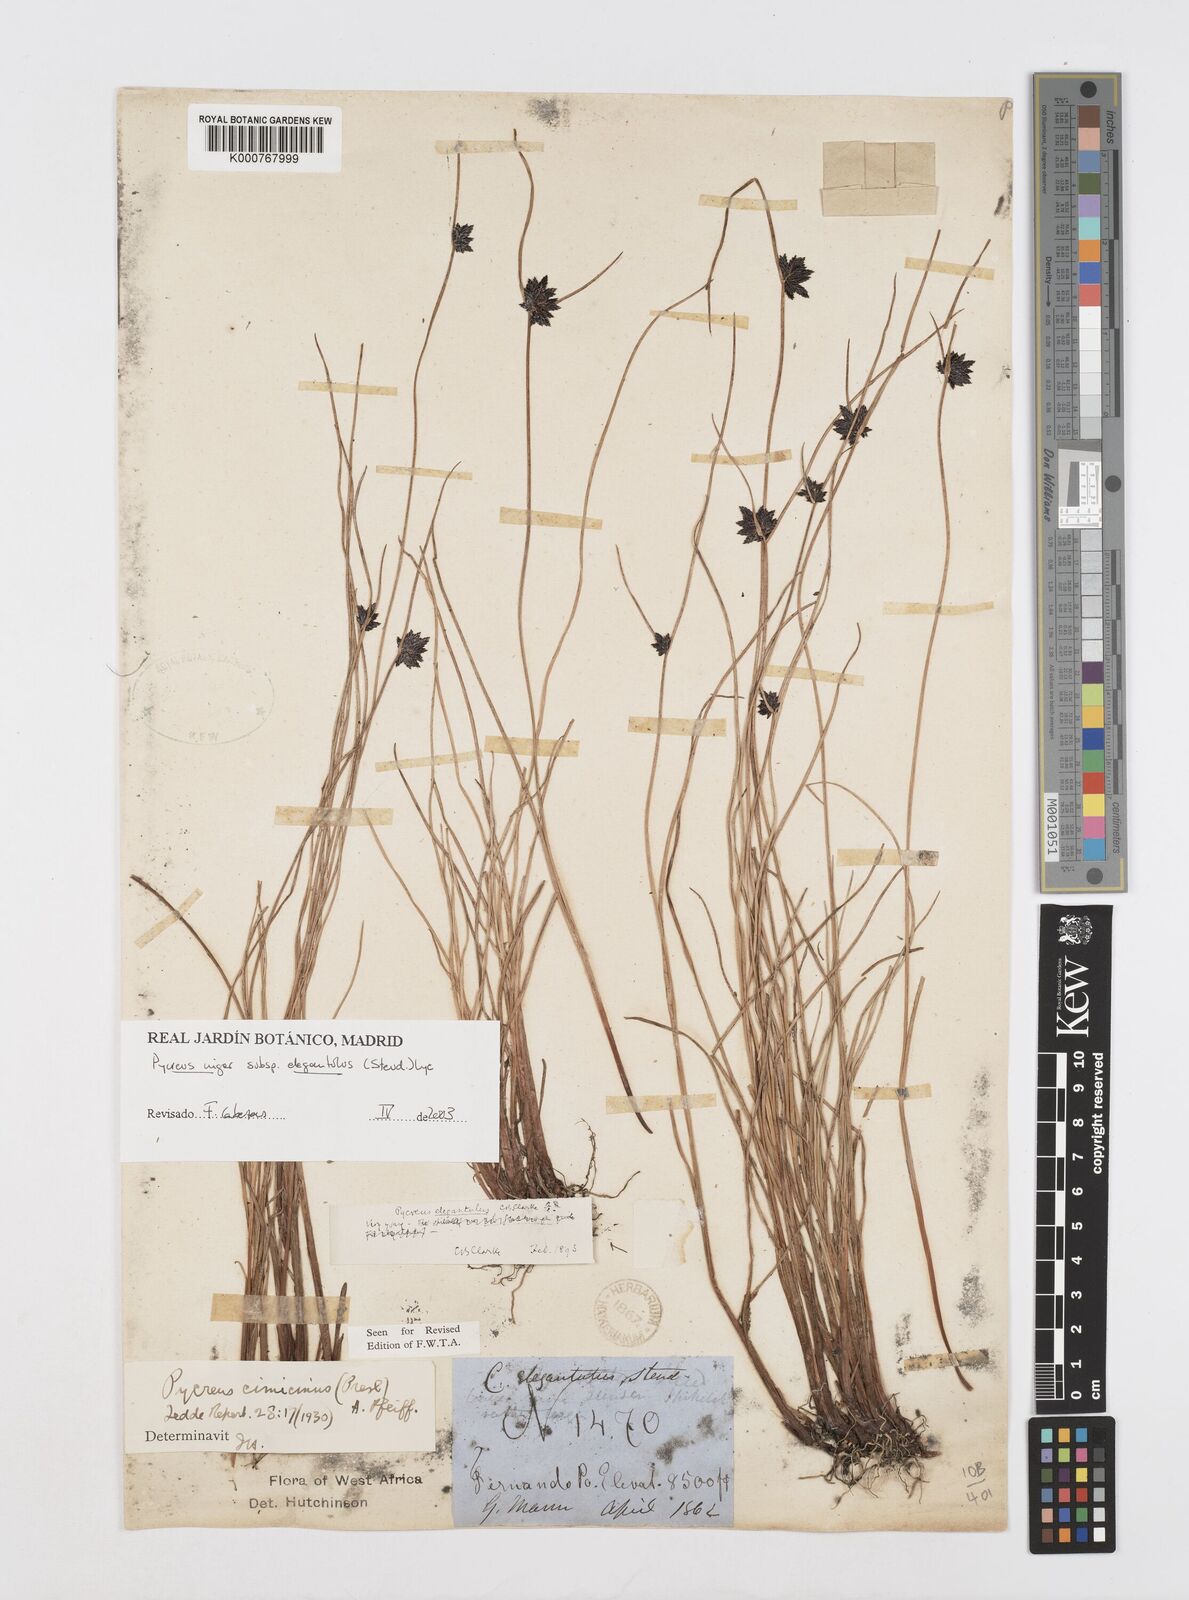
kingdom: Plantae
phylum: Tracheophyta
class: Liliopsida
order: Poales
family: Cyperaceae
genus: Cyperus
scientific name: Cyperus elegantulus
